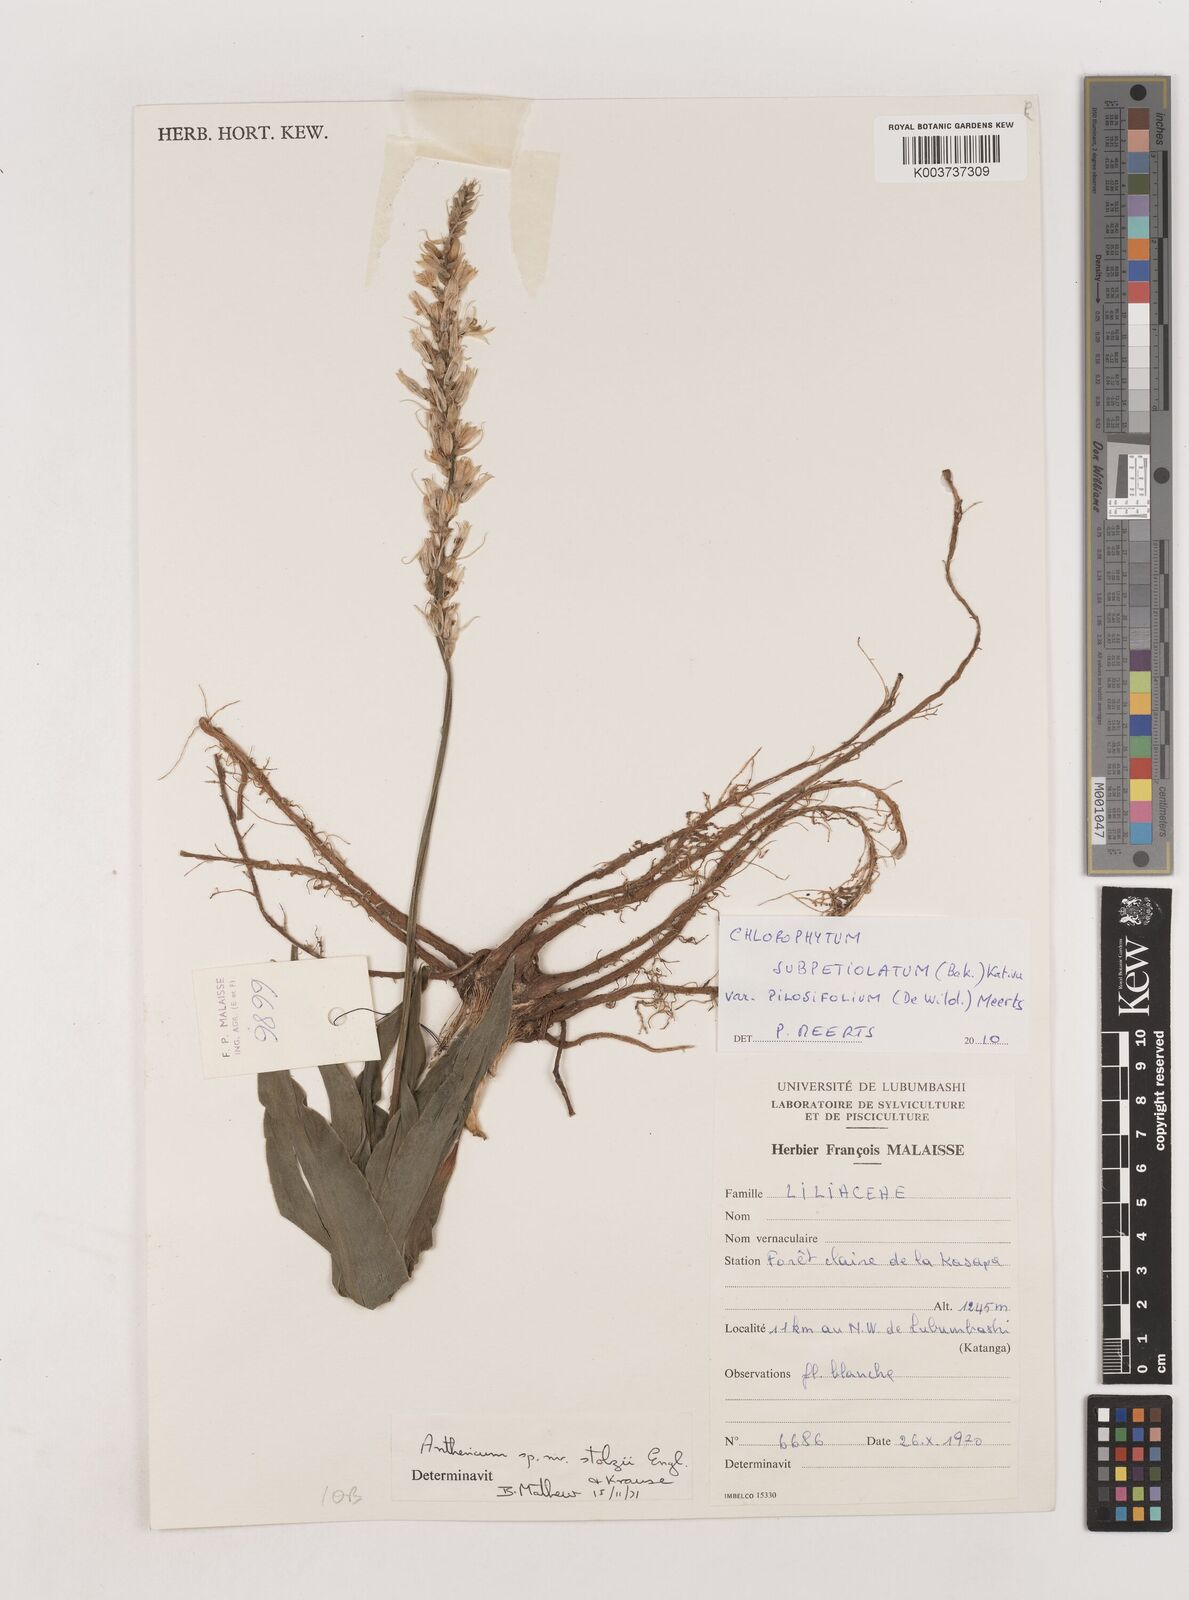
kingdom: Plantae
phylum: Tracheophyta
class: Liliopsida
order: Asparagales
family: Asparagaceae
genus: Chlorophytum
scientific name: Chlorophytum subpetiolatum
